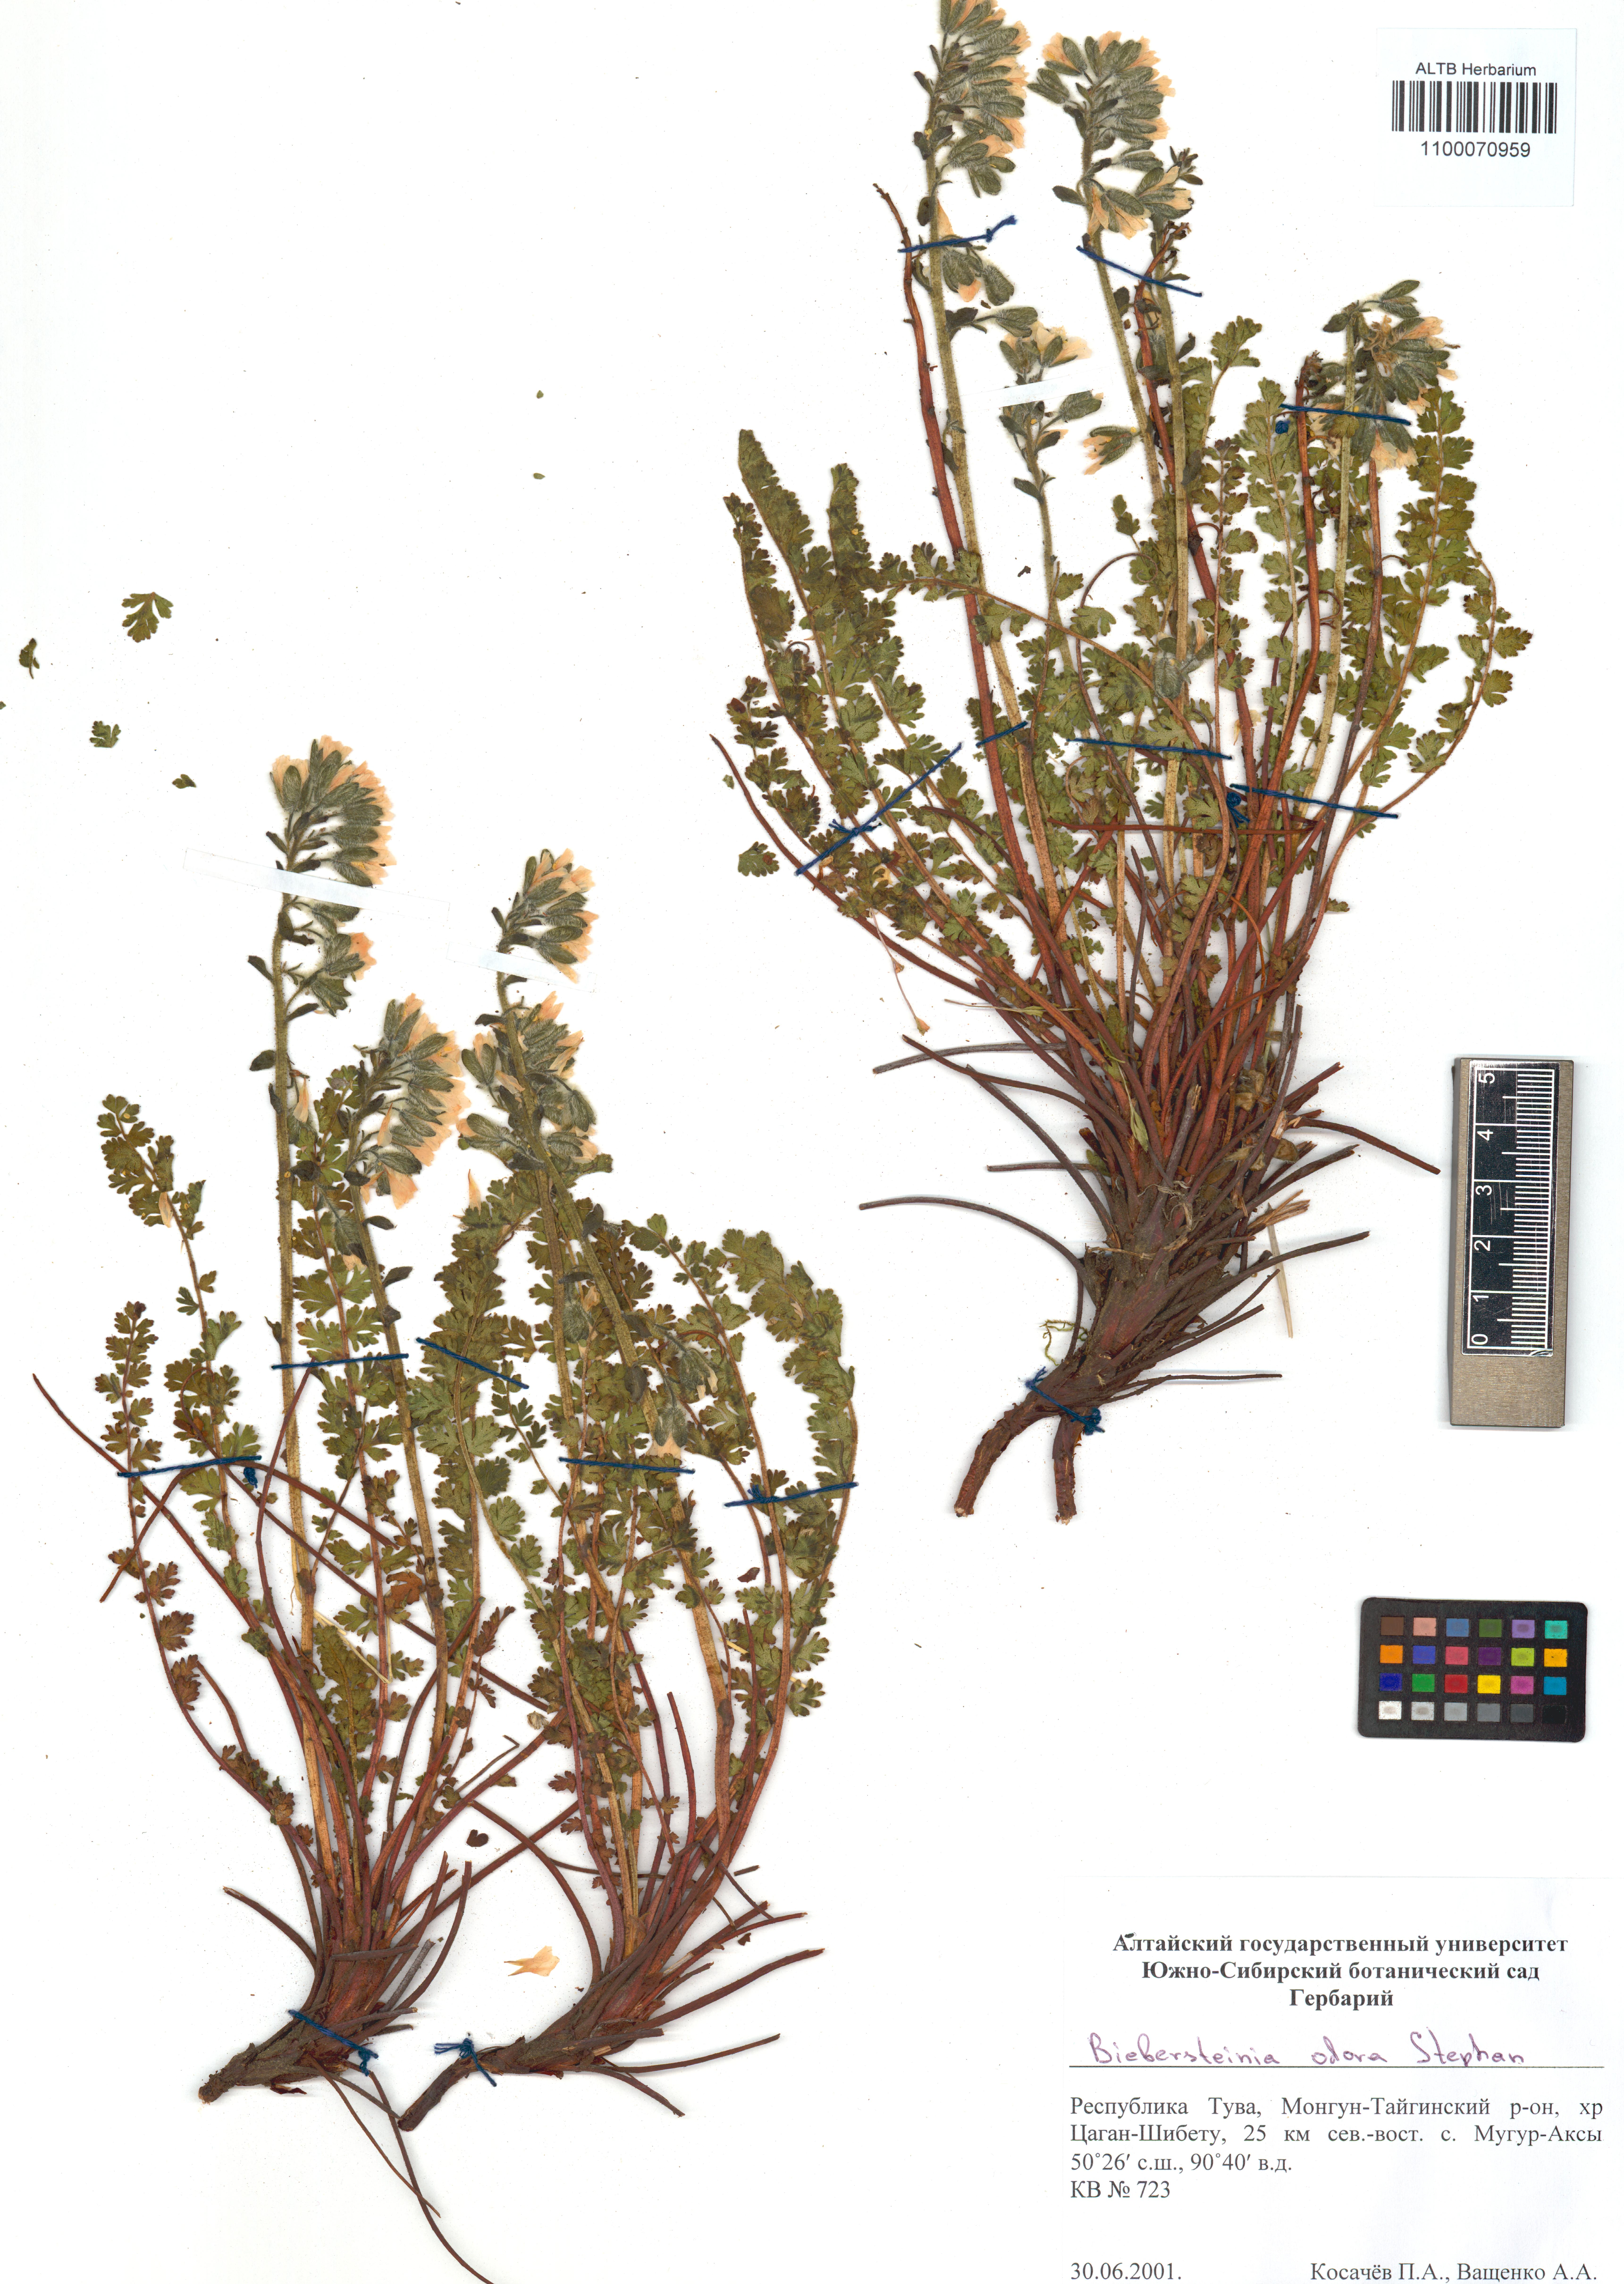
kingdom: Plantae
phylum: Tracheophyta
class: Magnoliopsida
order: Sapindales
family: Biebersteiniaceae
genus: Biebersteinia
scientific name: Biebersteinia odora
